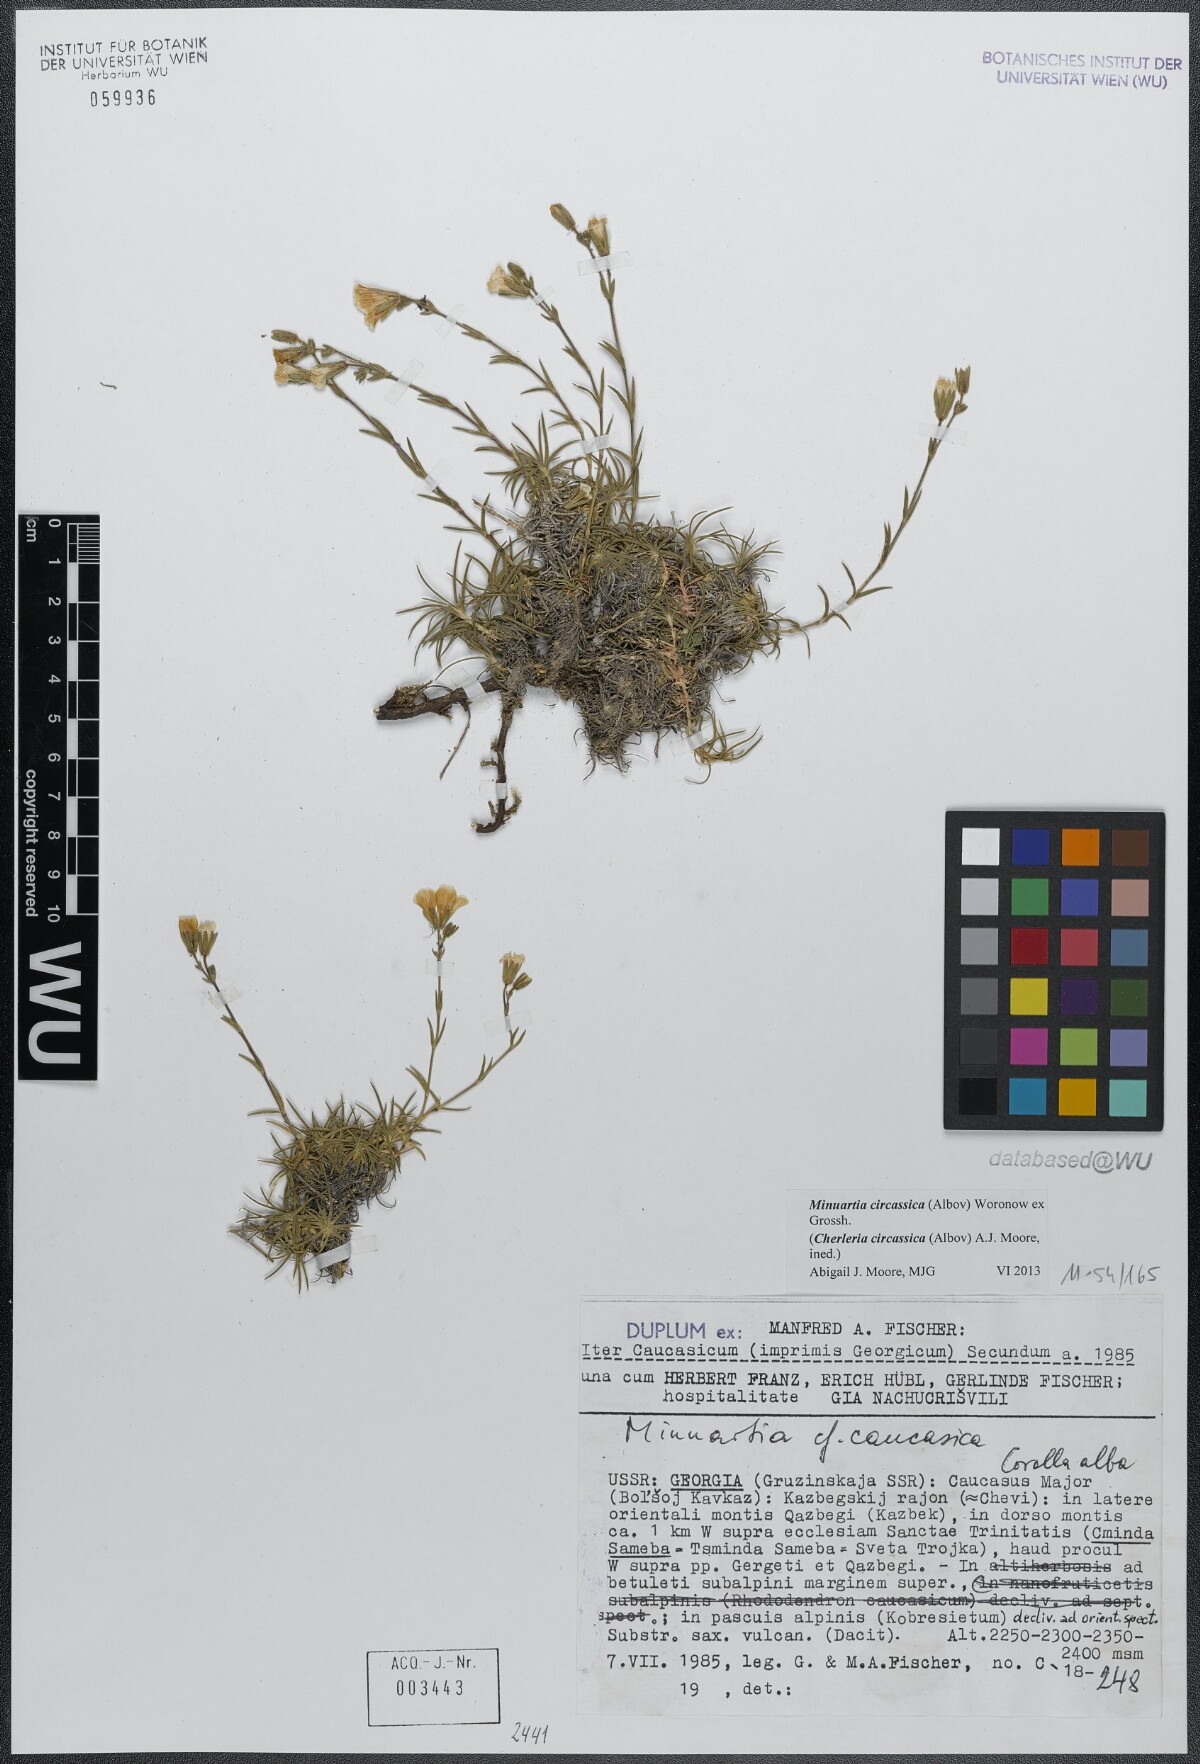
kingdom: Plantae
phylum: Tracheophyta
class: Magnoliopsida
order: Caryophyllales
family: Caryophyllaceae
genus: Cherleria
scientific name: Cherleria circassica
